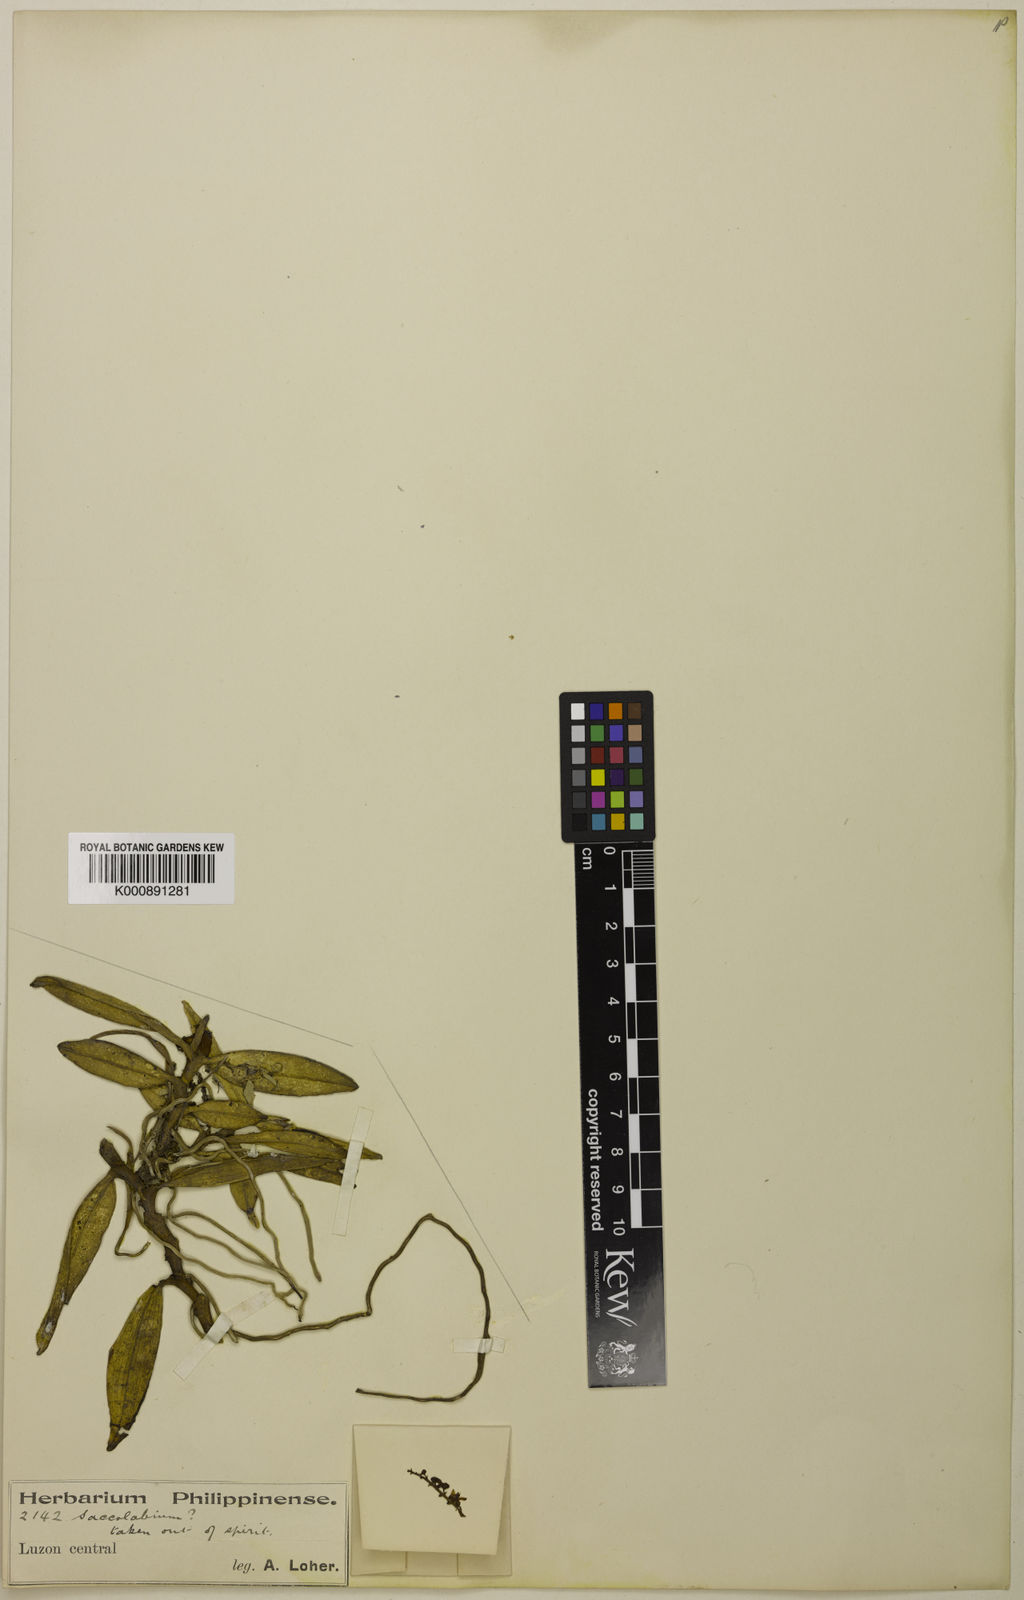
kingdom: Plantae
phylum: Tracheophyta
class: Liliopsida
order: Asparagales
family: Orchidaceae
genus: Thrixspermum
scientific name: Thrixspermum rolfei
